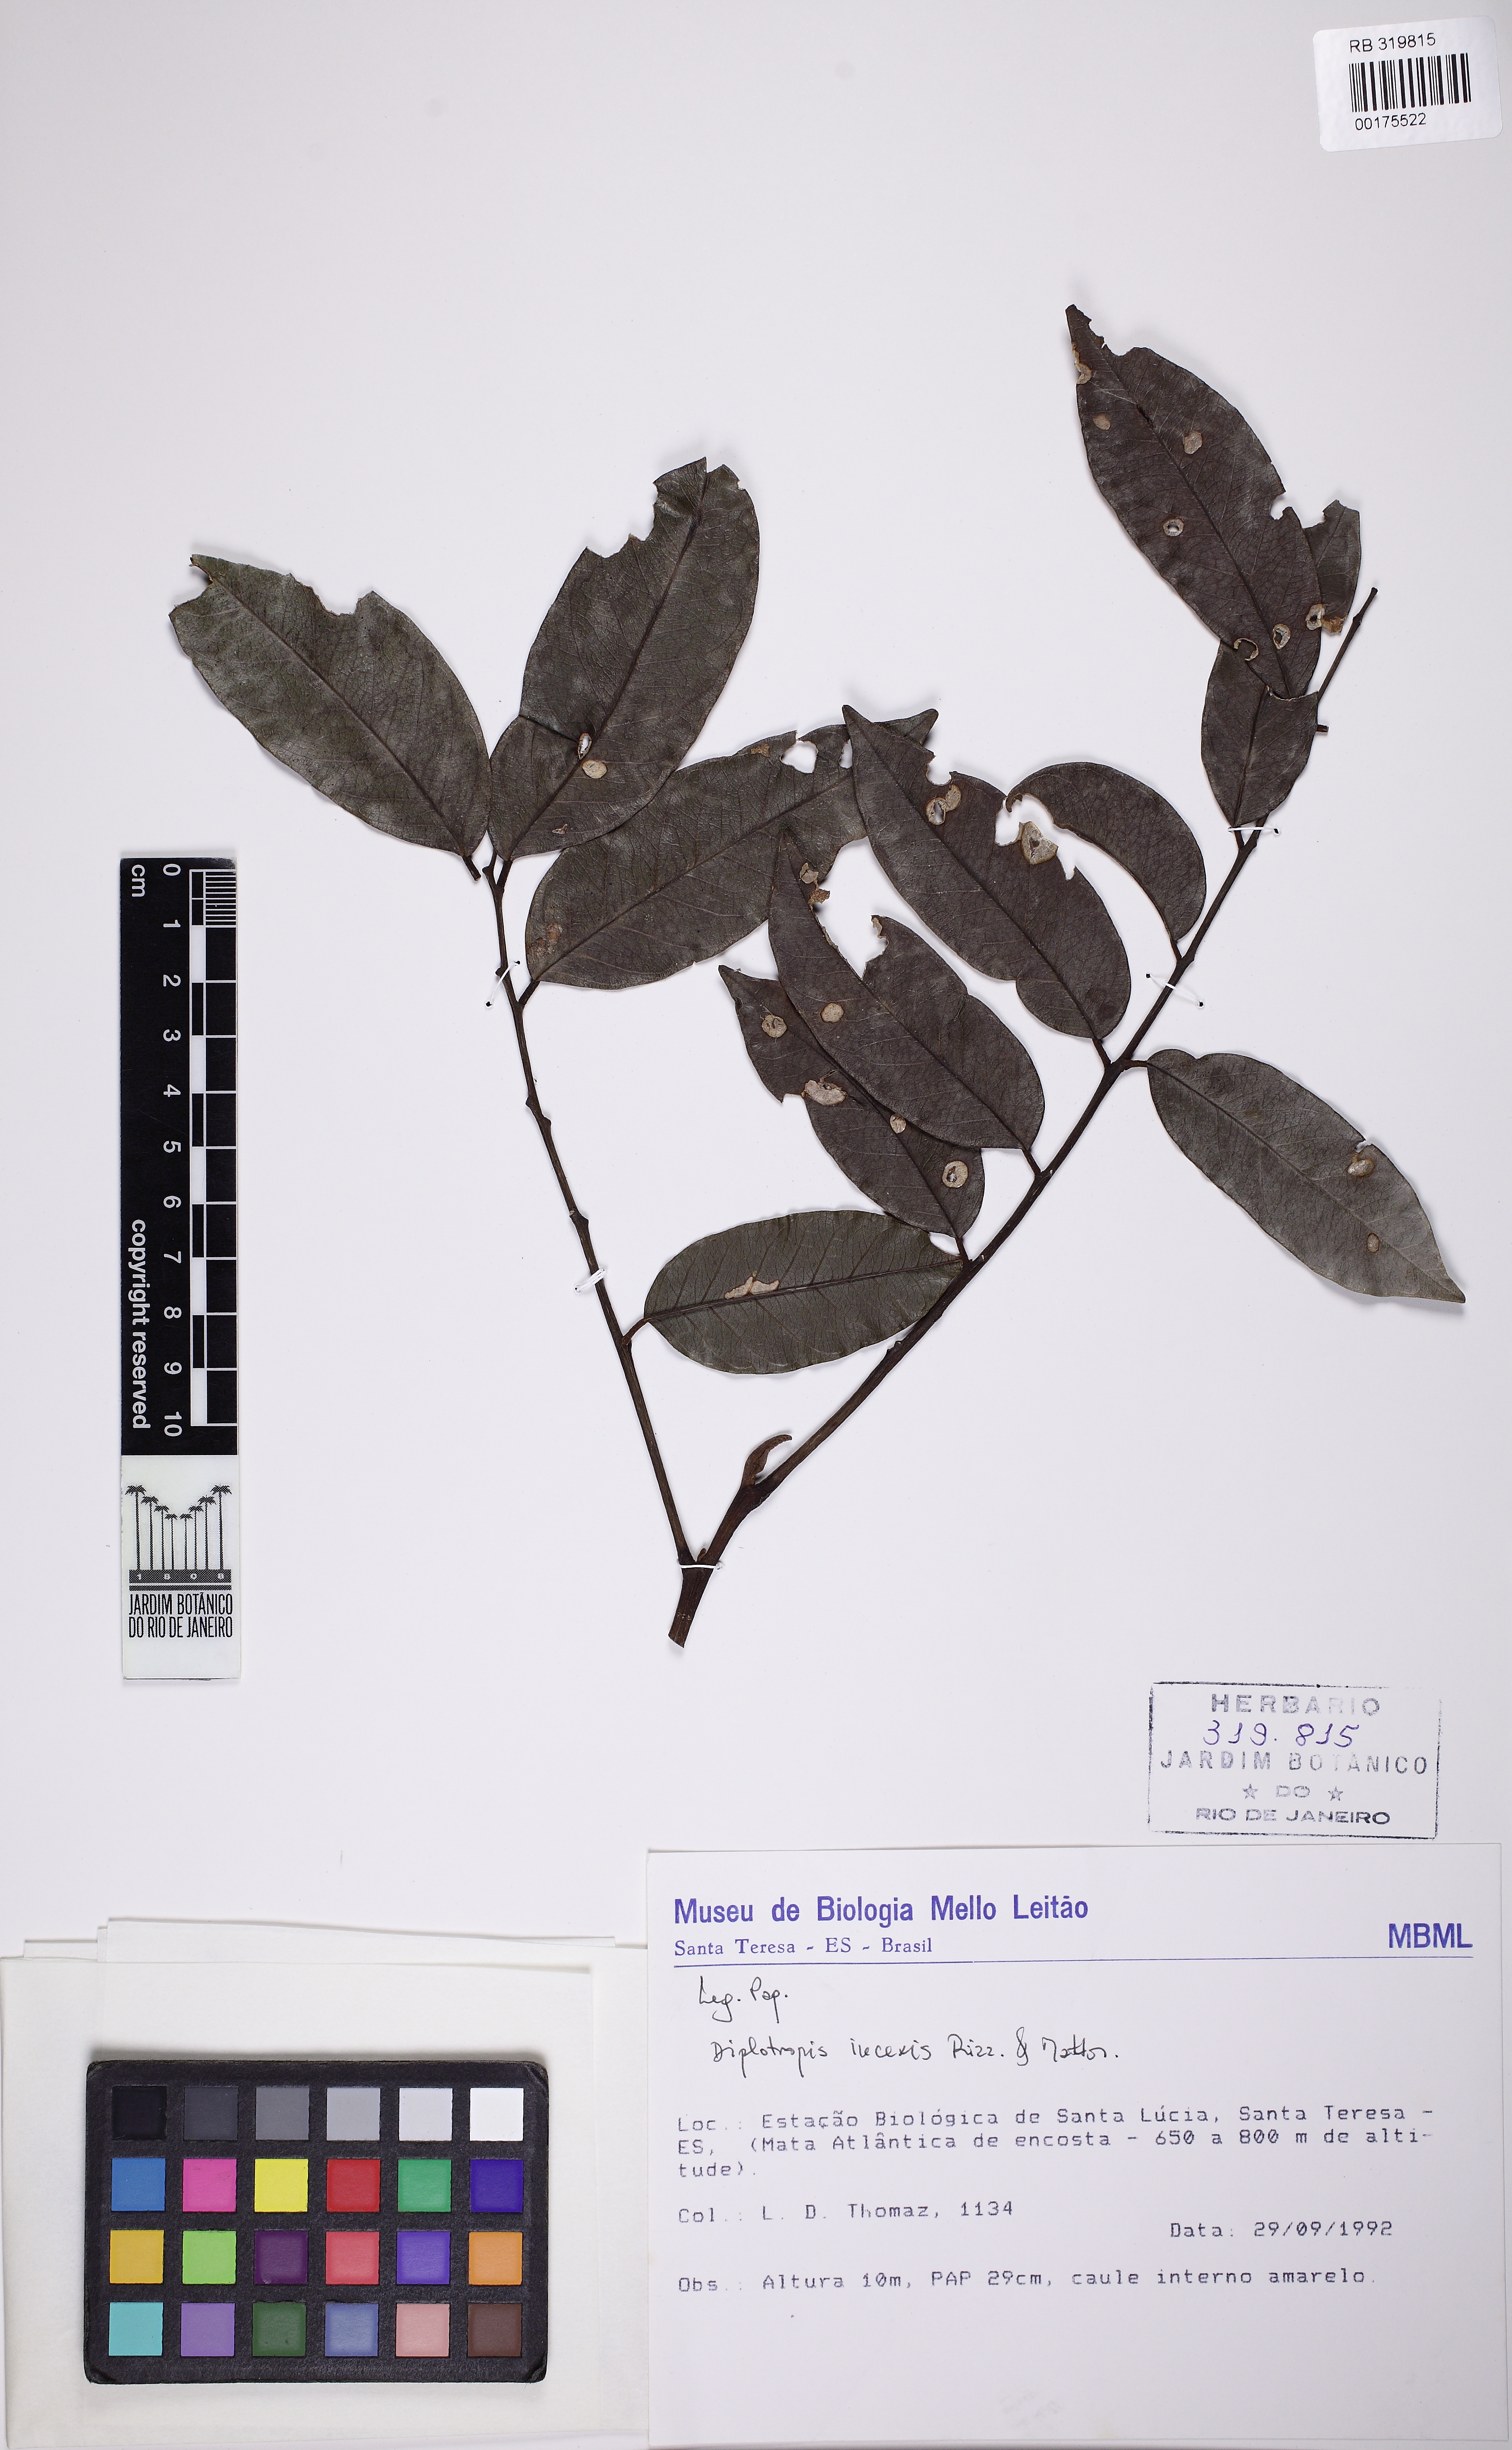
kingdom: Plantae
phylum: Tracheophyta
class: Magnoliopsida
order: Fabales
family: Fabaceae
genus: Diplotropis
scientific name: Diplotropis incexis
